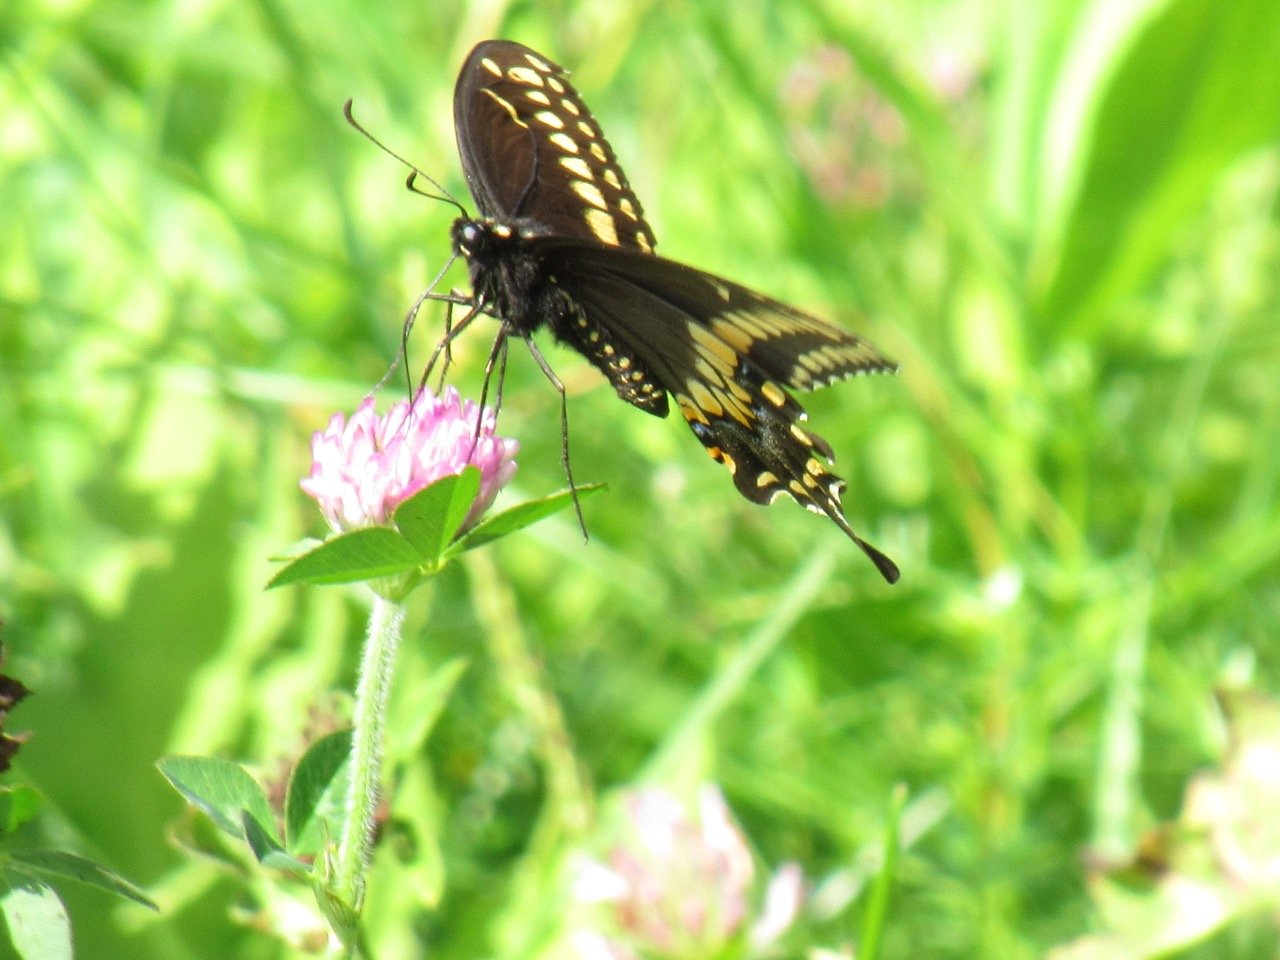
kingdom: Animalia
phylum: Arthropoda
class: Insecta
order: Lepidoptera
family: Papilionidae
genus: Papilio
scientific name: Papilio polyxenes
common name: Black Swallowtail
